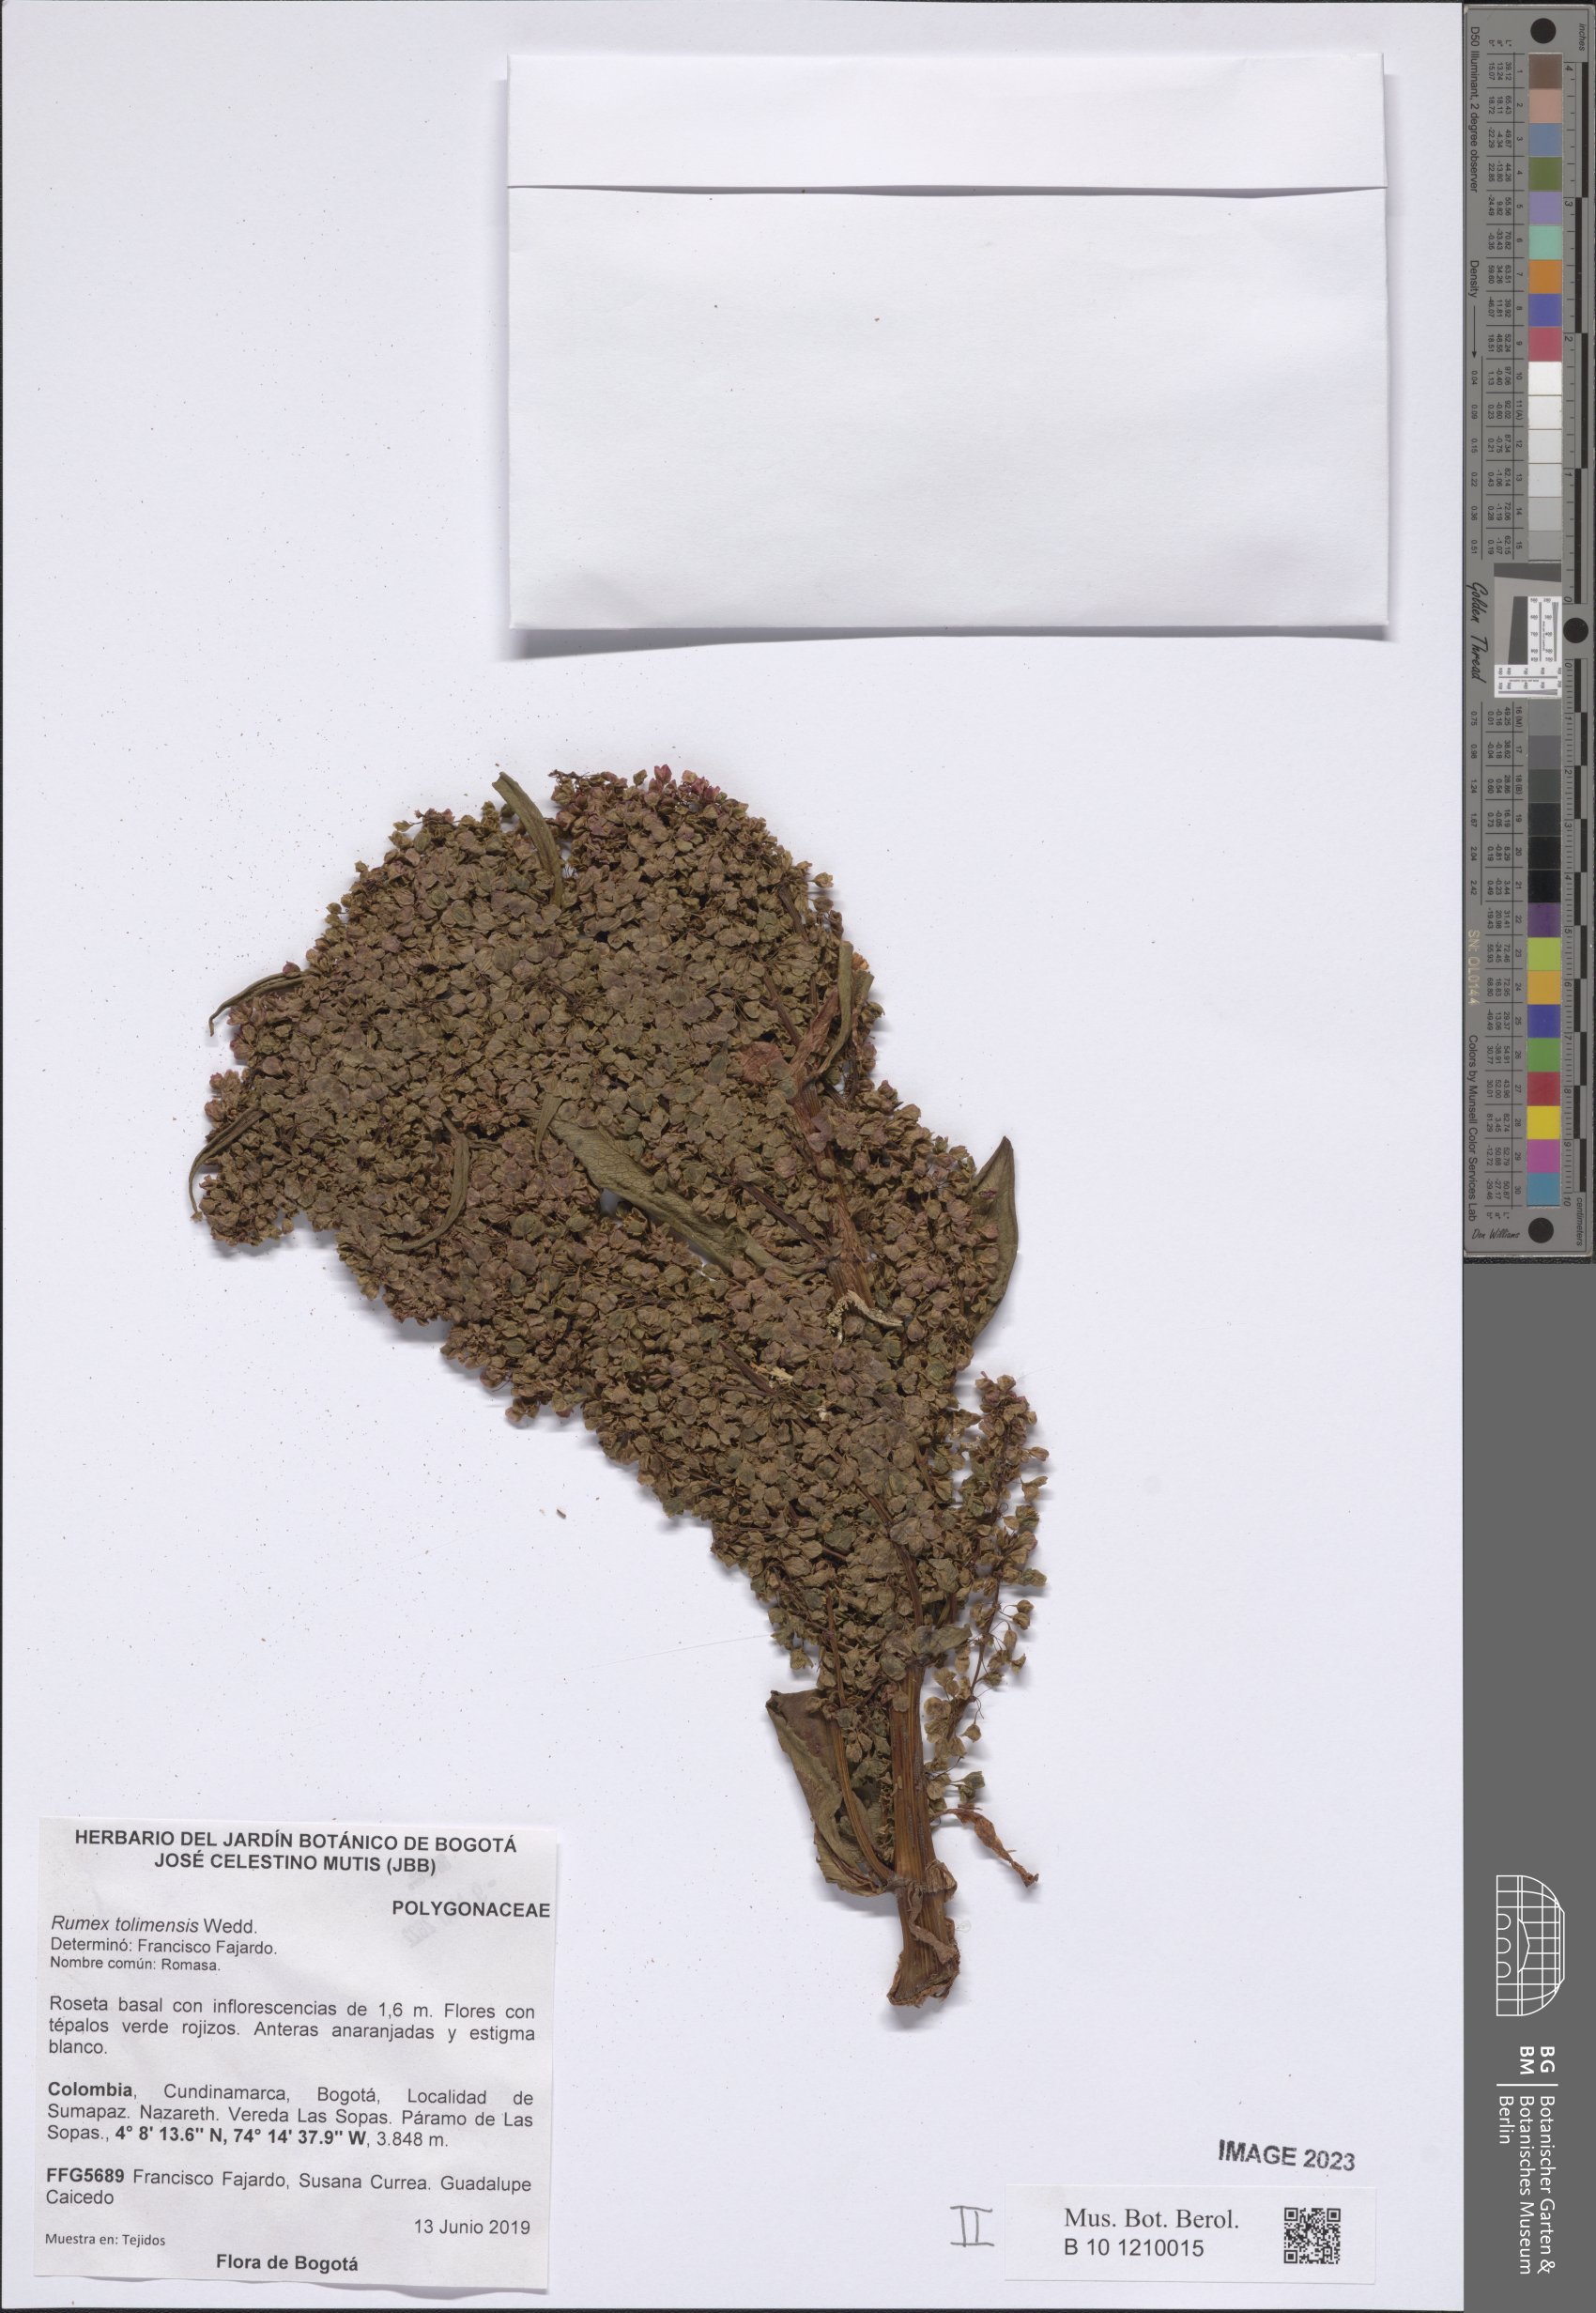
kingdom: Plantae
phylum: Tracheophyta
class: Magnoliopsida
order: Caryophyllales
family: Polygonaceae
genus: Rumex
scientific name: Rumex tolimensis
